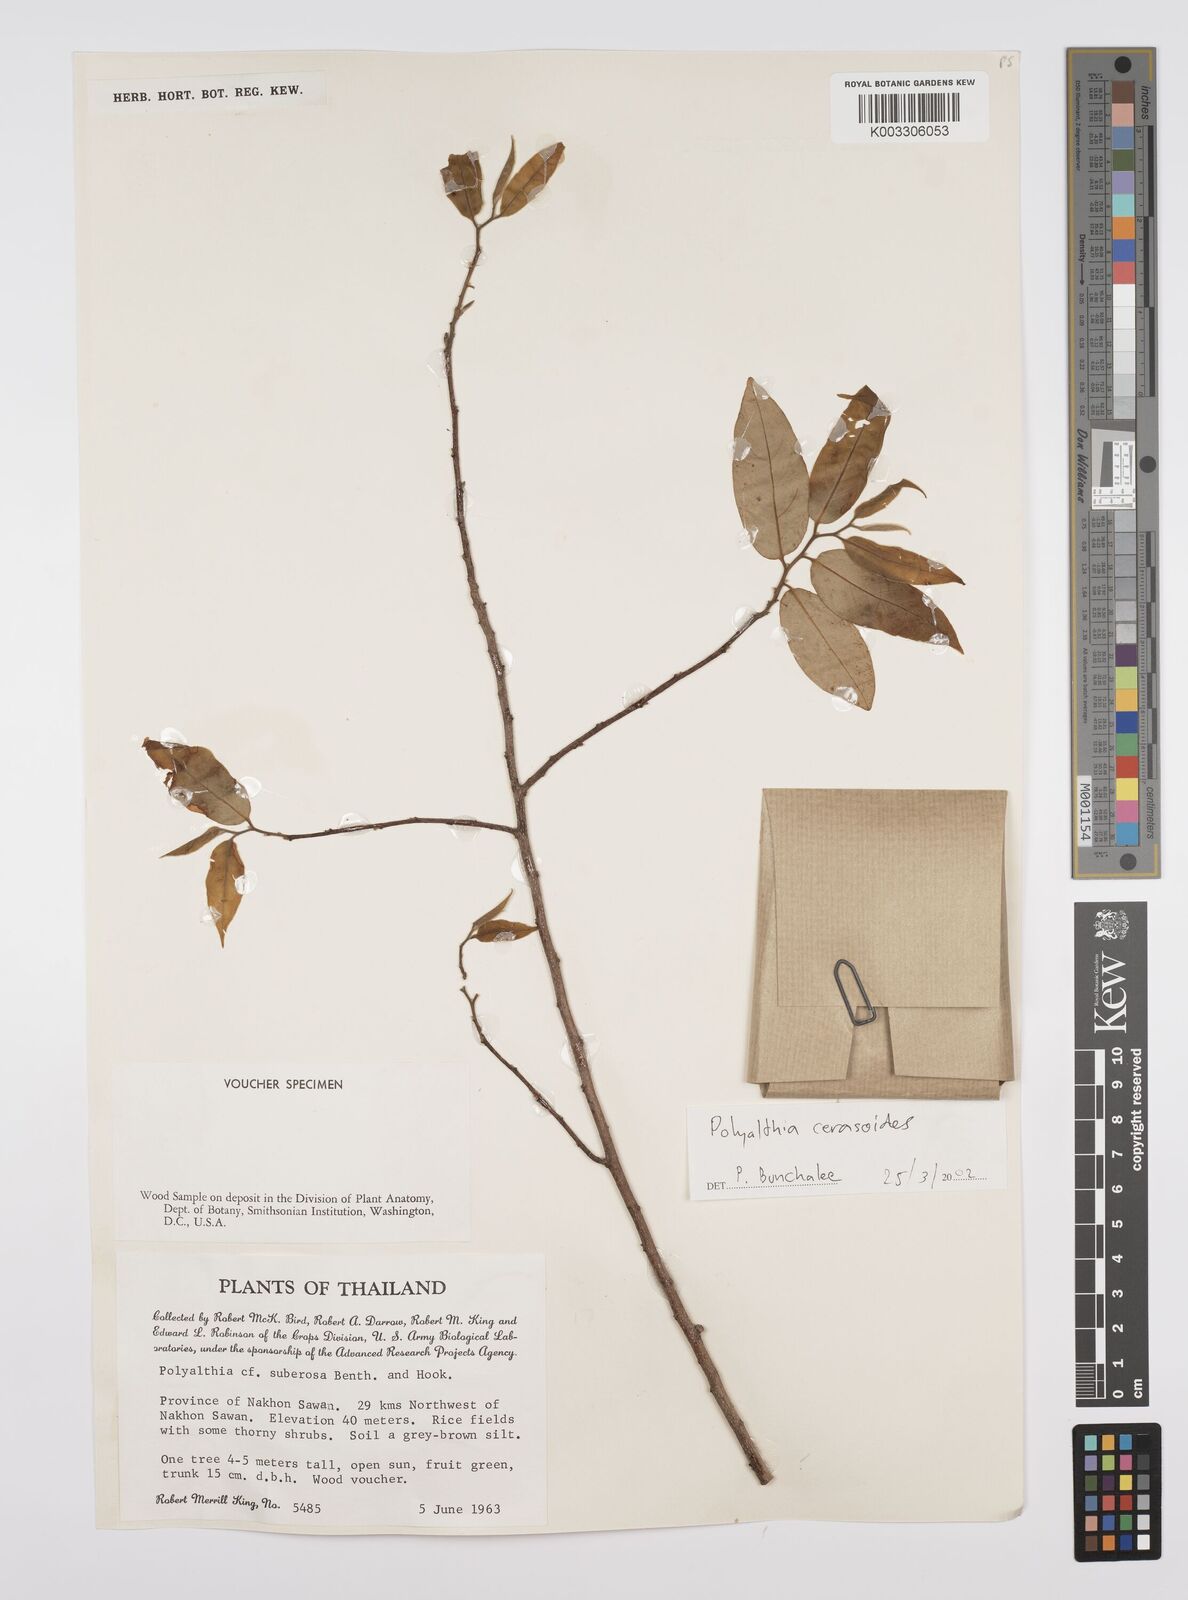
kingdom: Plantae
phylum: Tracheophyta
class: Magnoliopsida
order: Magnoliales
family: Annonaceae
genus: Hubera
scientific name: Hubera cerasoides
